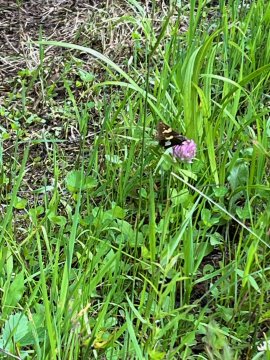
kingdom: Animalia
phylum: Arthropoda
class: Insecta
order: Lepidoptera
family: Hesperiidae
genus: Epargyreus
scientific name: Epargyreus clarus
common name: Silver-spotted Skipper
